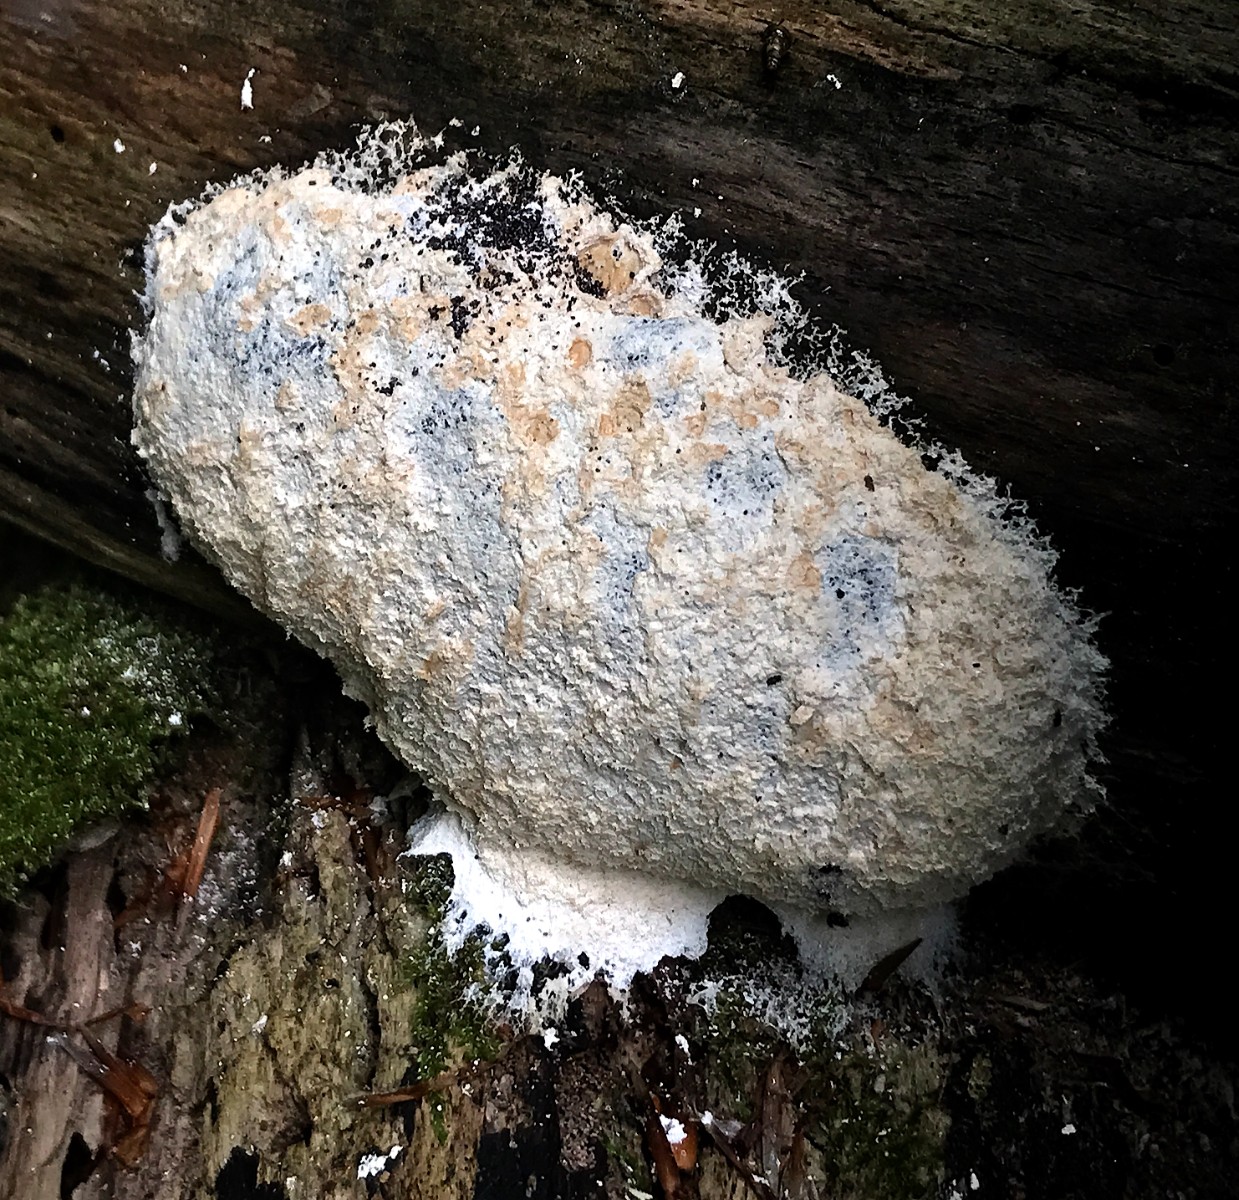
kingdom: Protozoa
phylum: Mycetozoa
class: Myxomycetes
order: Physarales
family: Physaraceae
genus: Fuligo
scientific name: Fuligo
